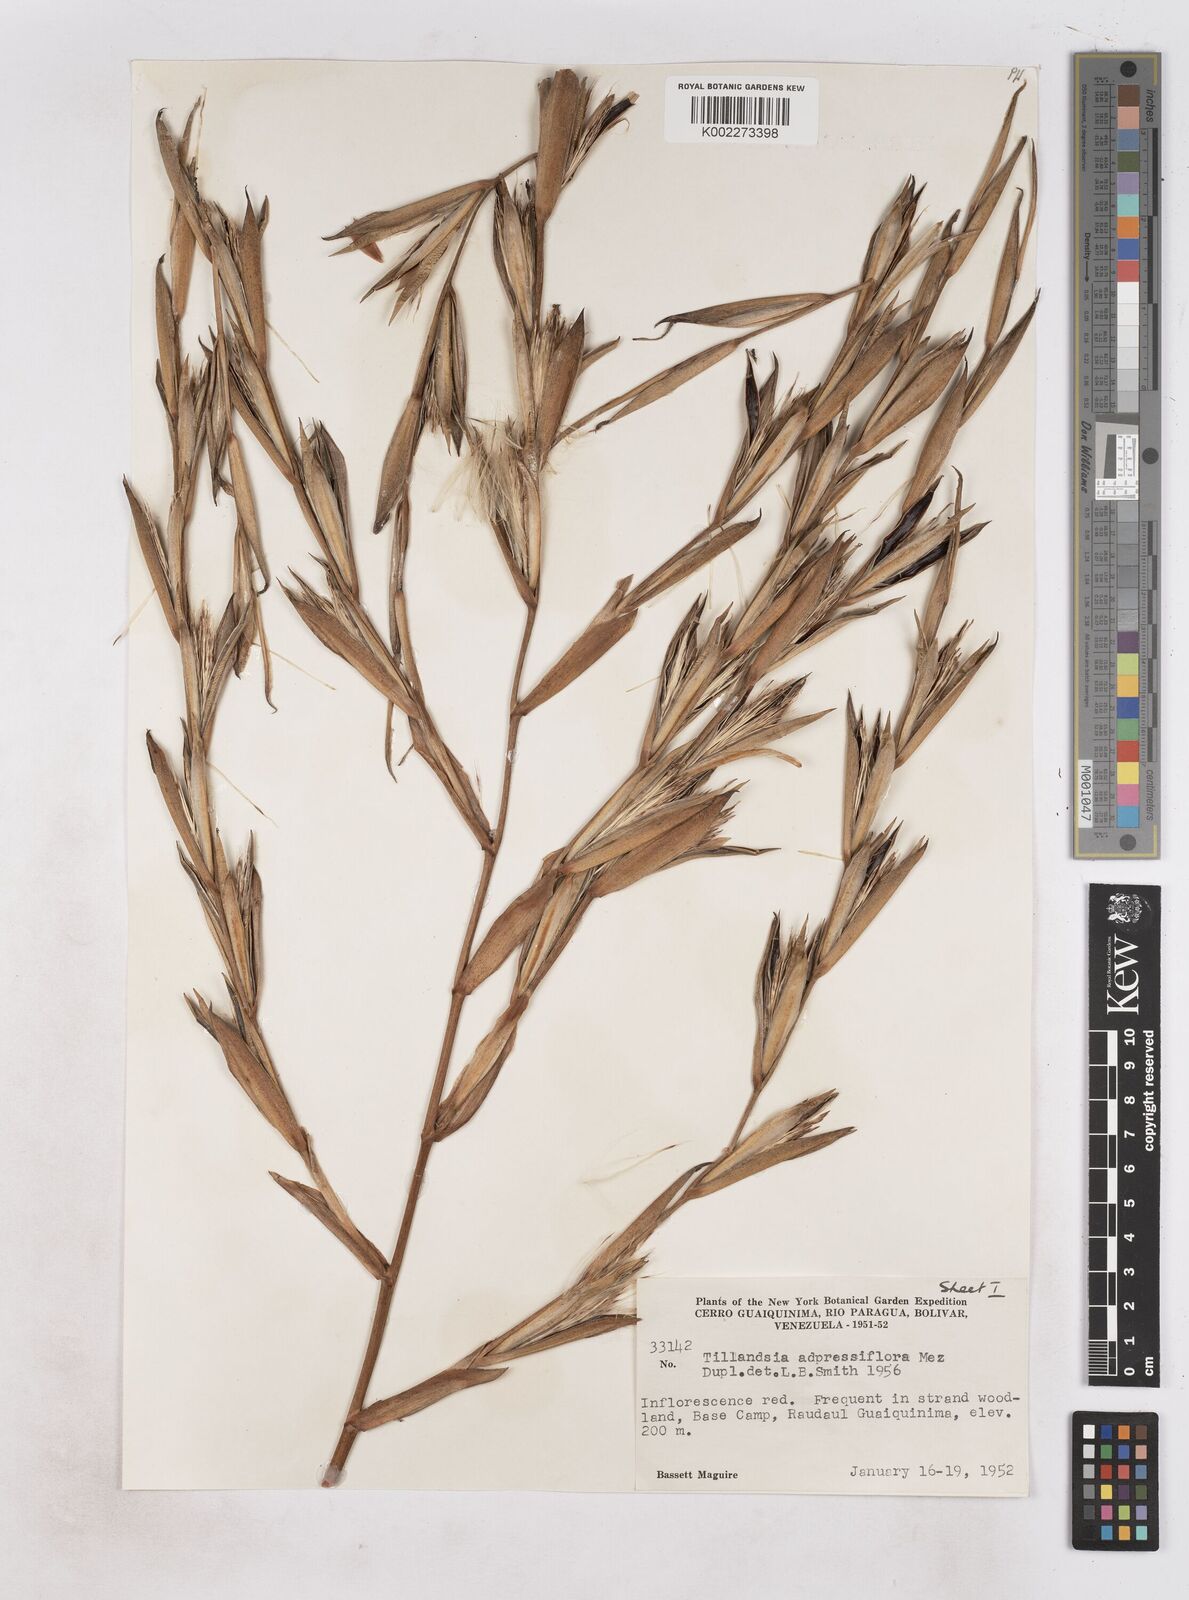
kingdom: Plantae
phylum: Tracheophyta
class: Liliopsida
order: Poales
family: Bromeliaceae
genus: Tillandsia
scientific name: Tillandsia adpressiflora
